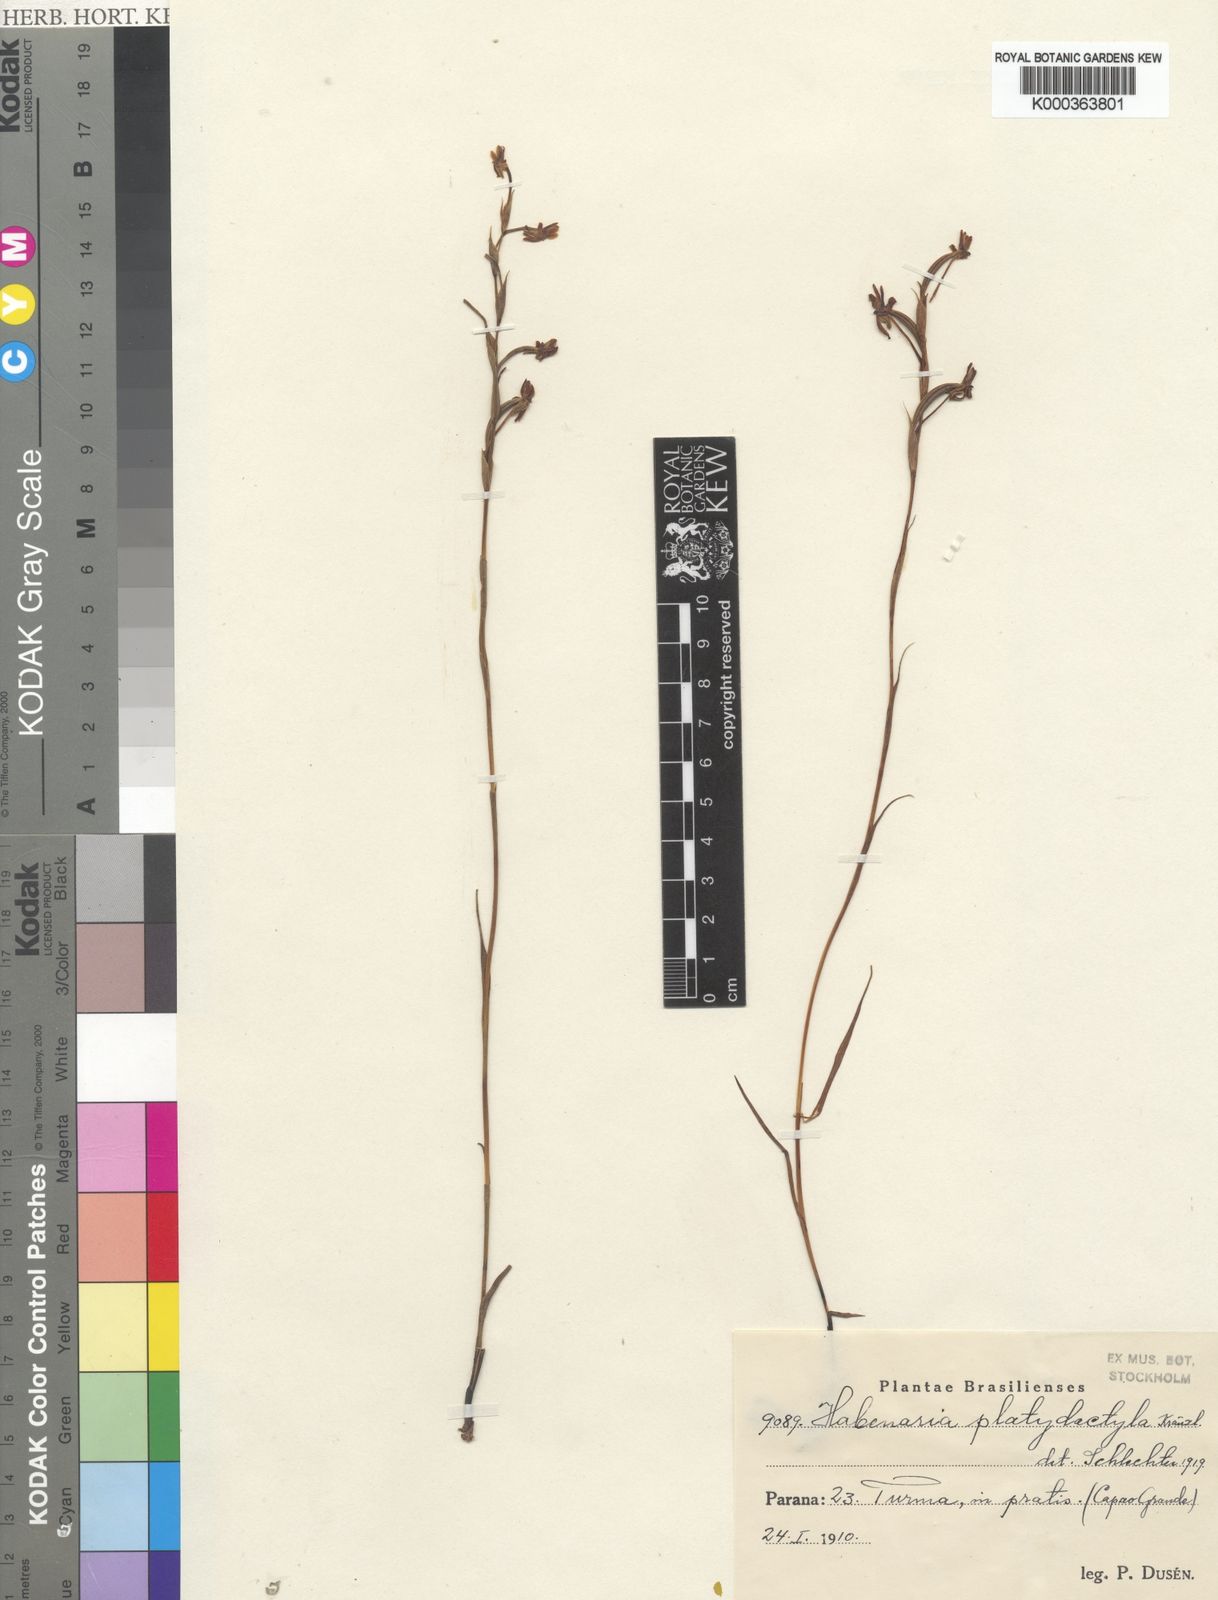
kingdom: Plantae
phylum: Tracheophyta
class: Liliopsida
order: Asparagales
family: Orchidaceae
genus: Habenaria
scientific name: Habenaria leprieurii
